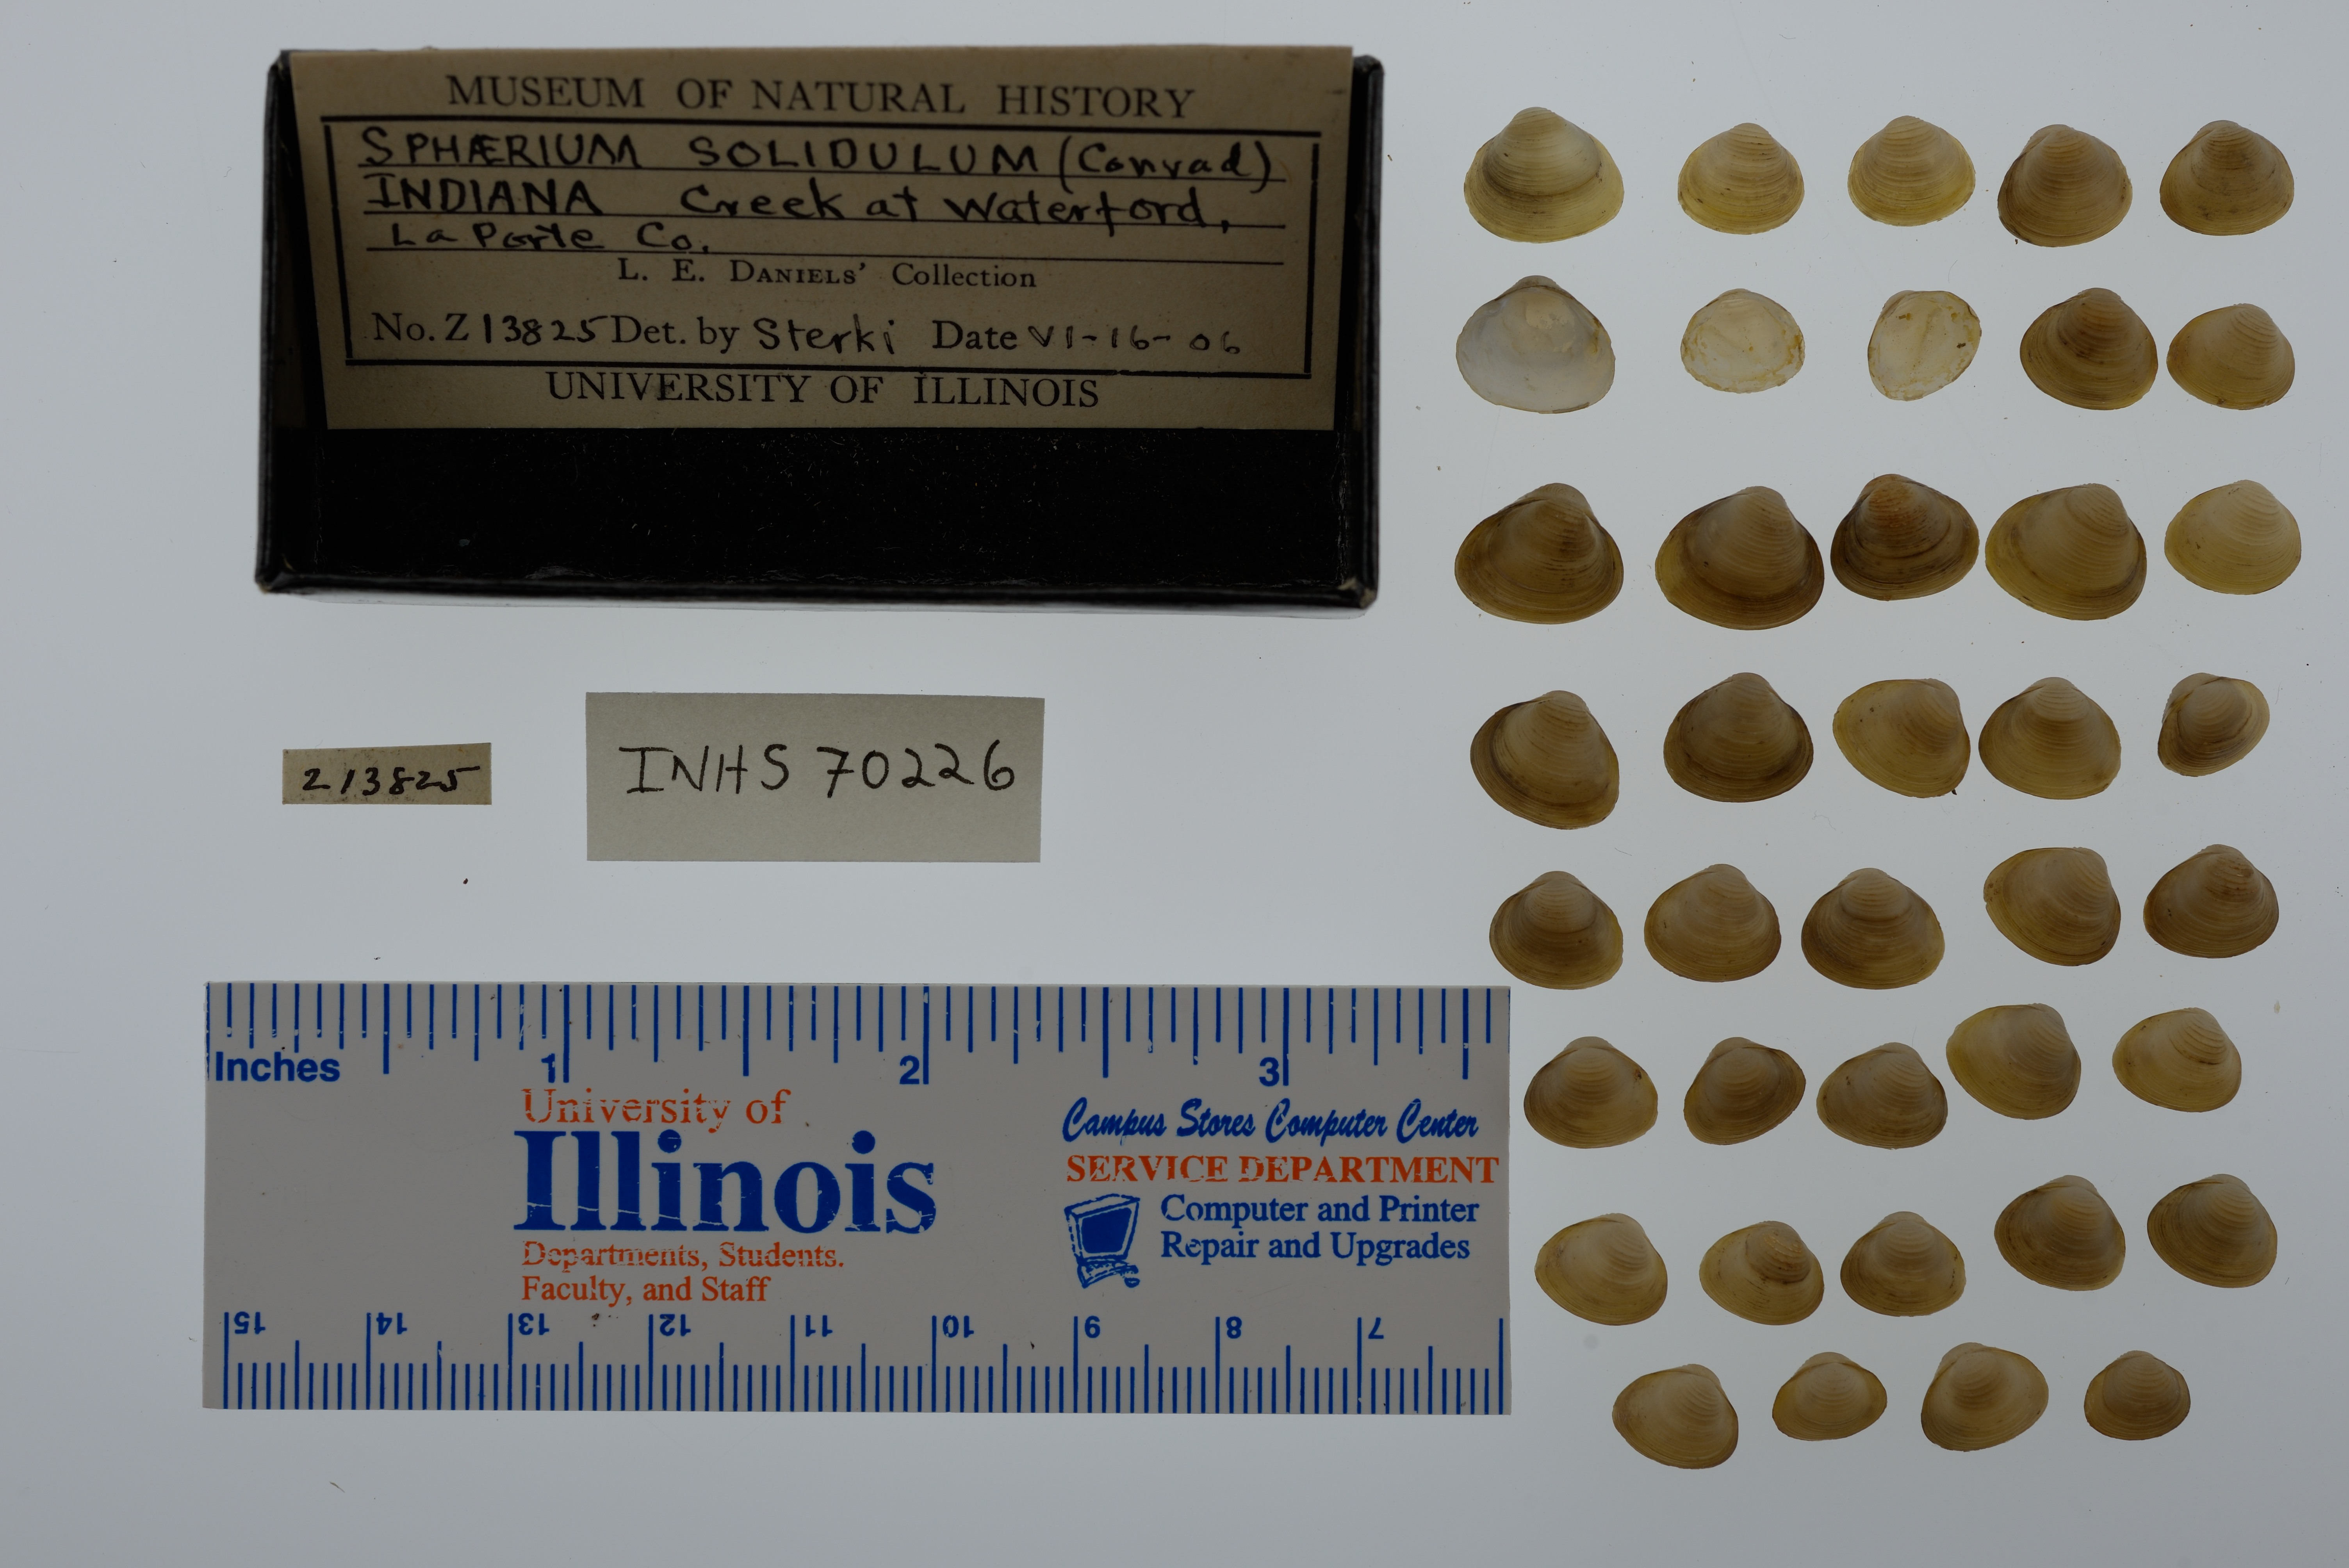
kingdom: Animalia
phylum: Mollusca
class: Bivalvia
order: Sphaeriida
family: Sphaeriidae
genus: Sphaerium
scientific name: Sphaerium striatinum
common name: Striated fingernailclam
